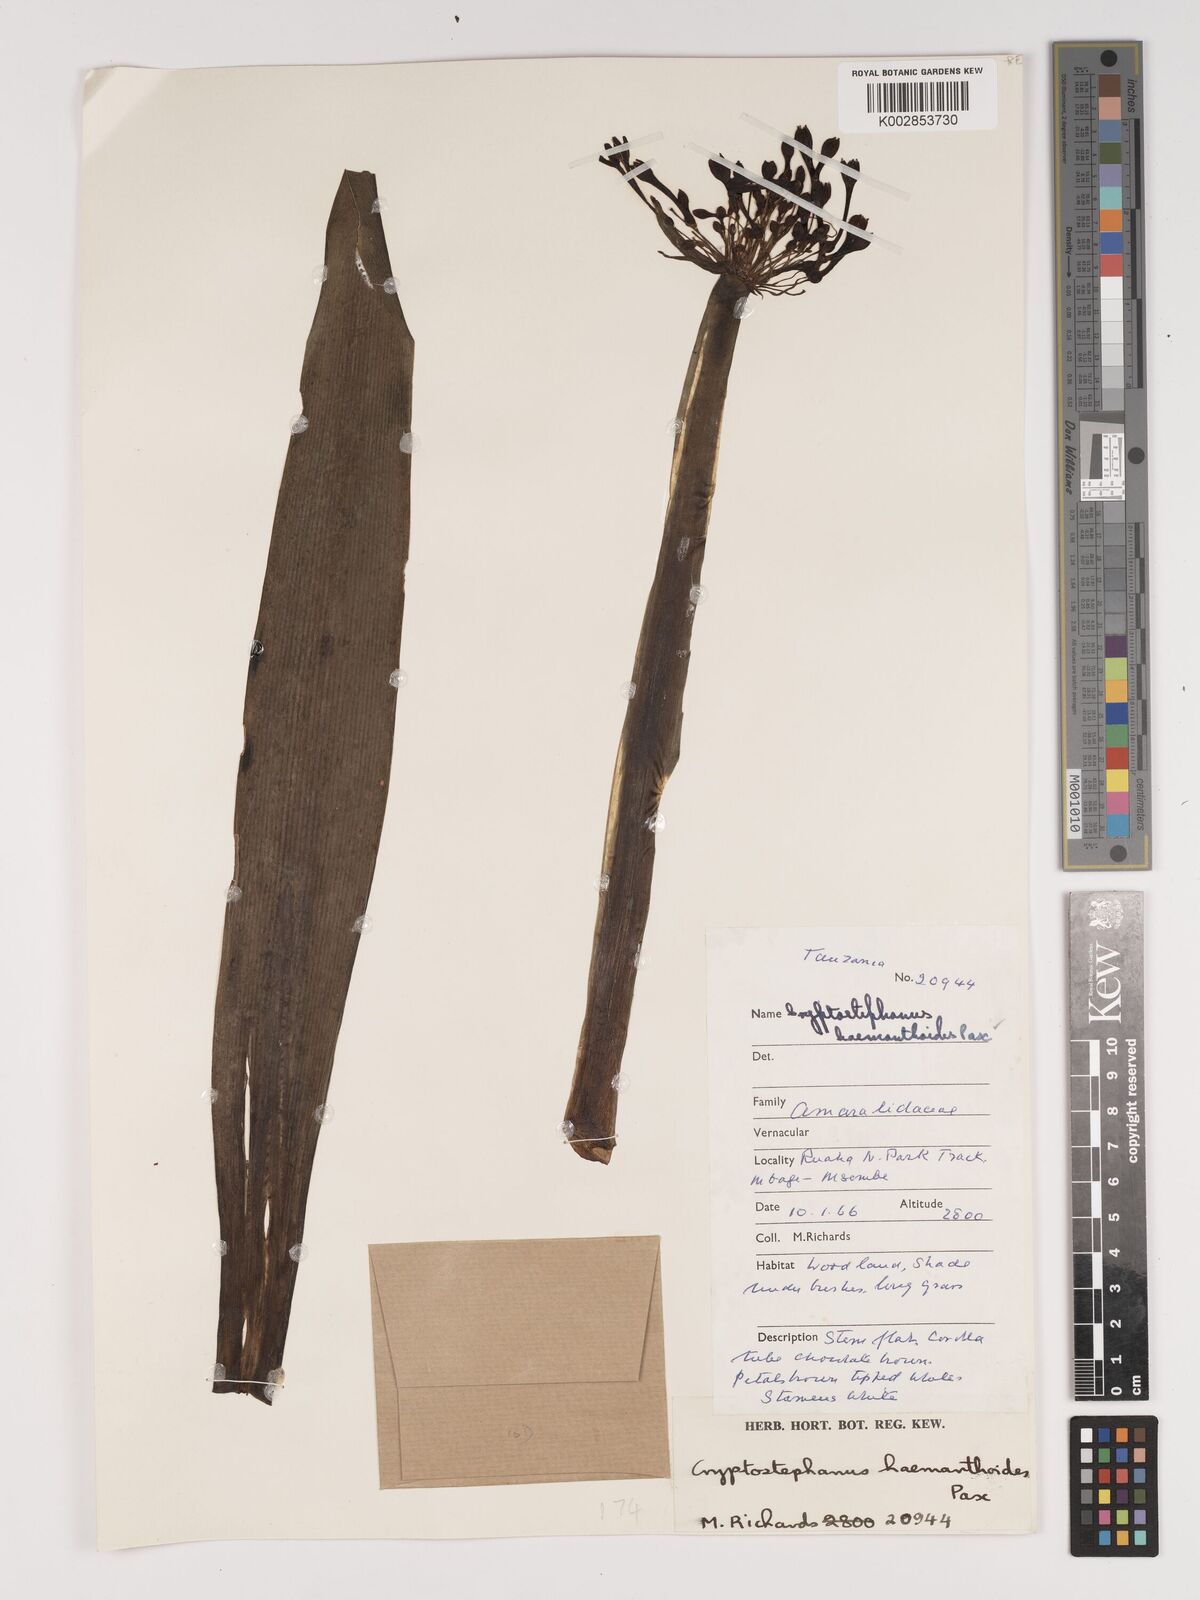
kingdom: Plantae
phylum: Tracheophyta
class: Liliopsida
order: Asparagales
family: Amaryllidaceae
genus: Cryptostephanus
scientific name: Cryptostephanus haemanthoides
